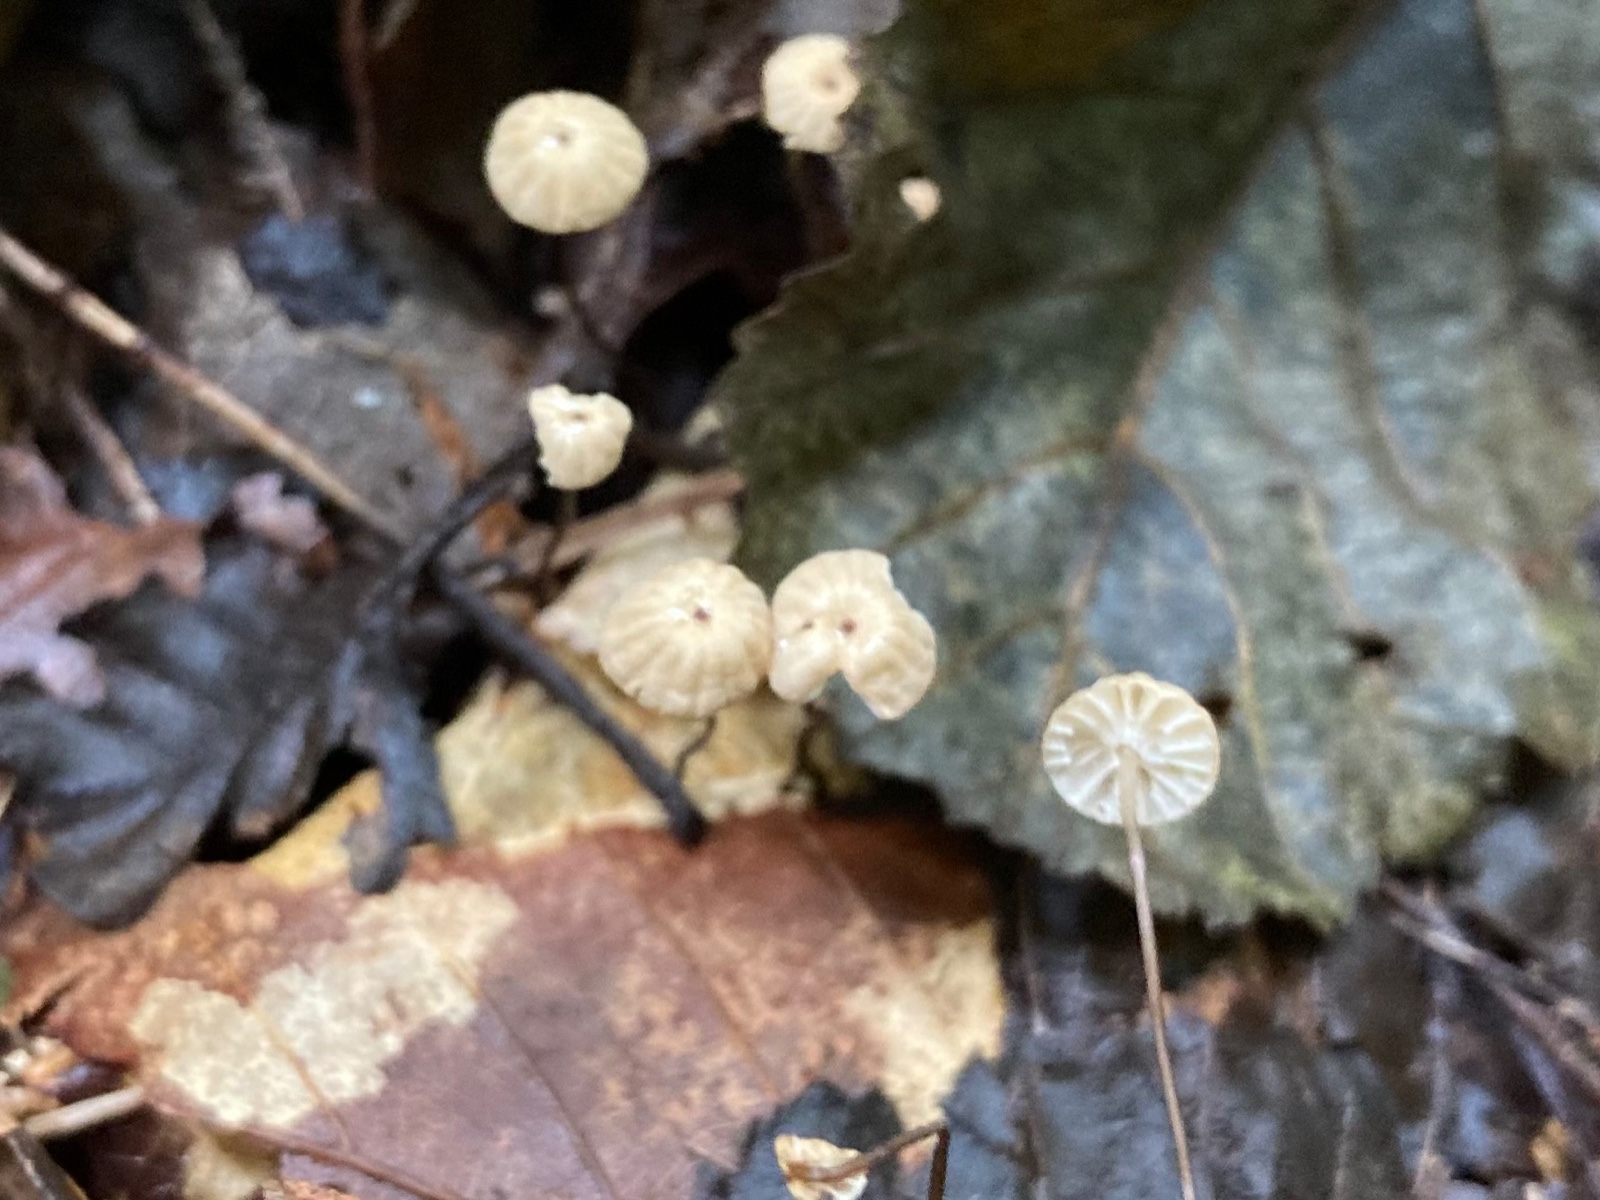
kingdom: Fungi
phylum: Basidiomycota
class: Agaricomycetes
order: Agaricales
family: Marasmiaceae
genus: Marasmius
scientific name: Marasmius bulliardii
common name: furet bruskhat
